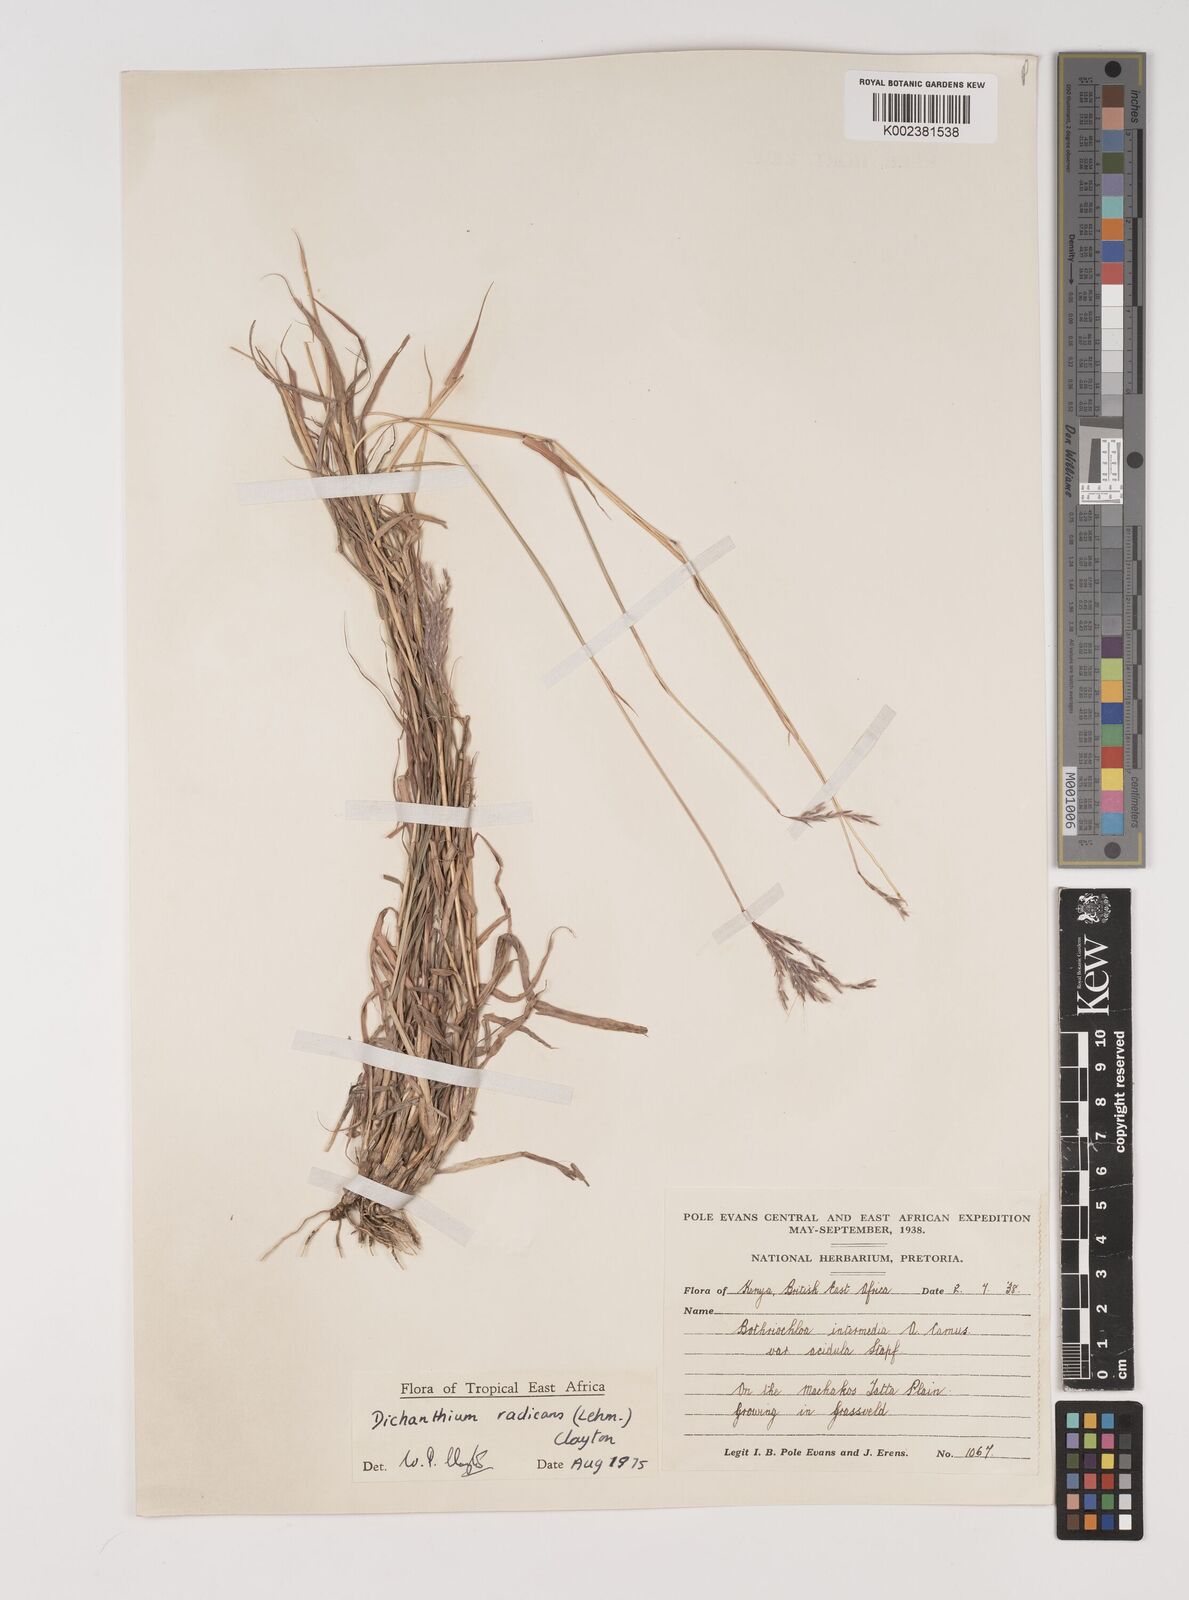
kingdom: Plantae
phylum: Tracheophyta
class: Liliopsida
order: Poales
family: Poaceae
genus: Bothriochloa
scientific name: Bothriochloa radicans
